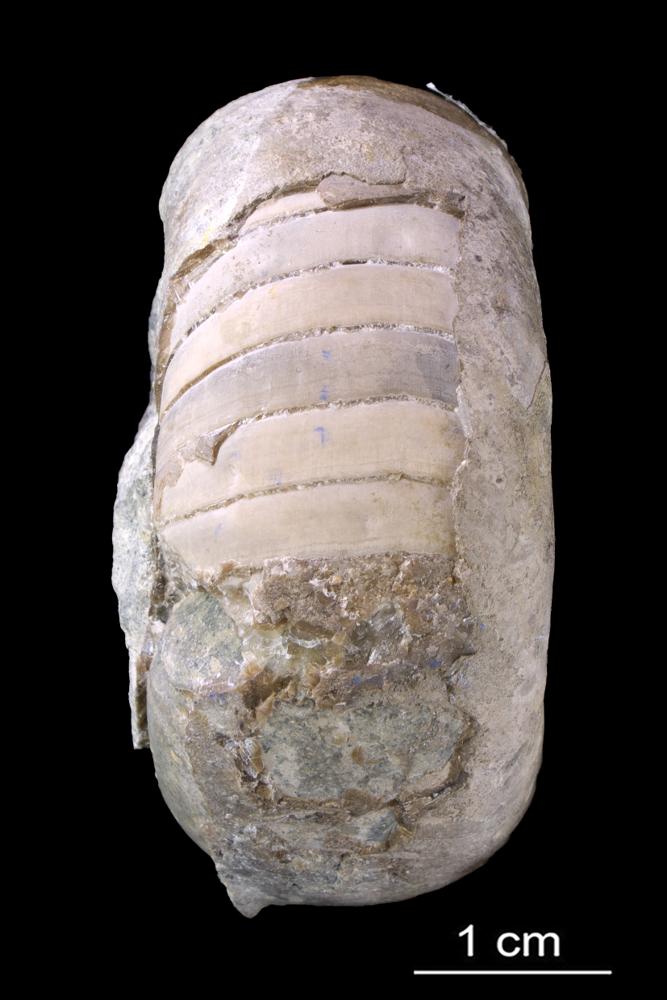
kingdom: Animalia
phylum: Mollusca
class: Cephalopoda
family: Estonioceratidae
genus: Estonioceras
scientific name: Estonioceras
